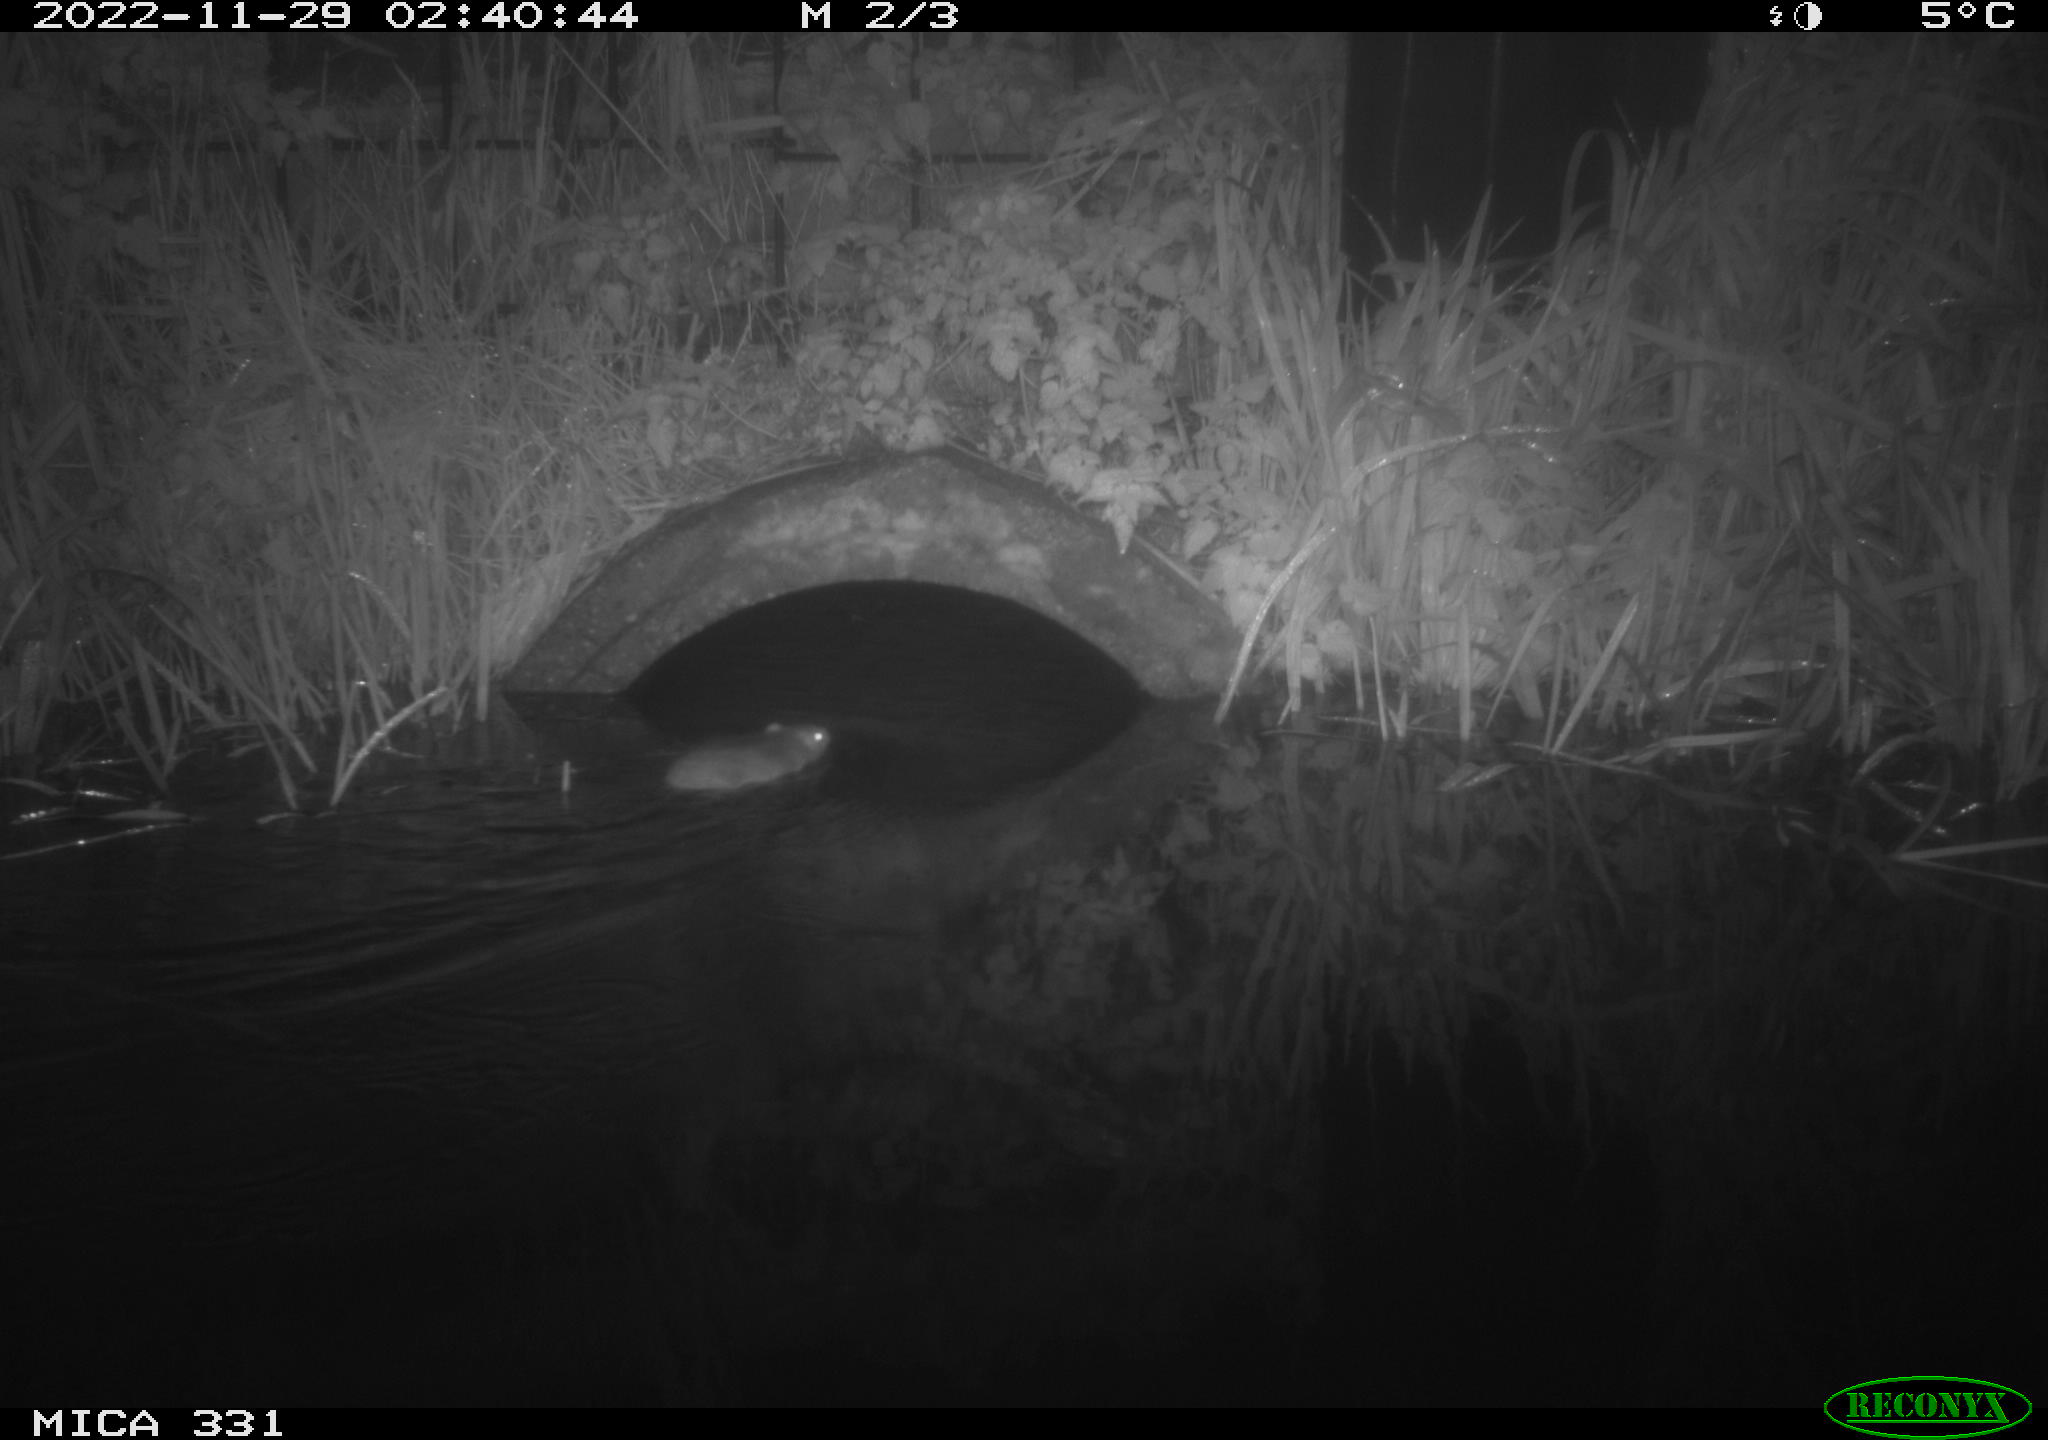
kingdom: Animalia
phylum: Chordata
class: Mammalia
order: Rodentia
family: Muridae
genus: Rattus
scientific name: Rattus norvegicus
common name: Brown rat
